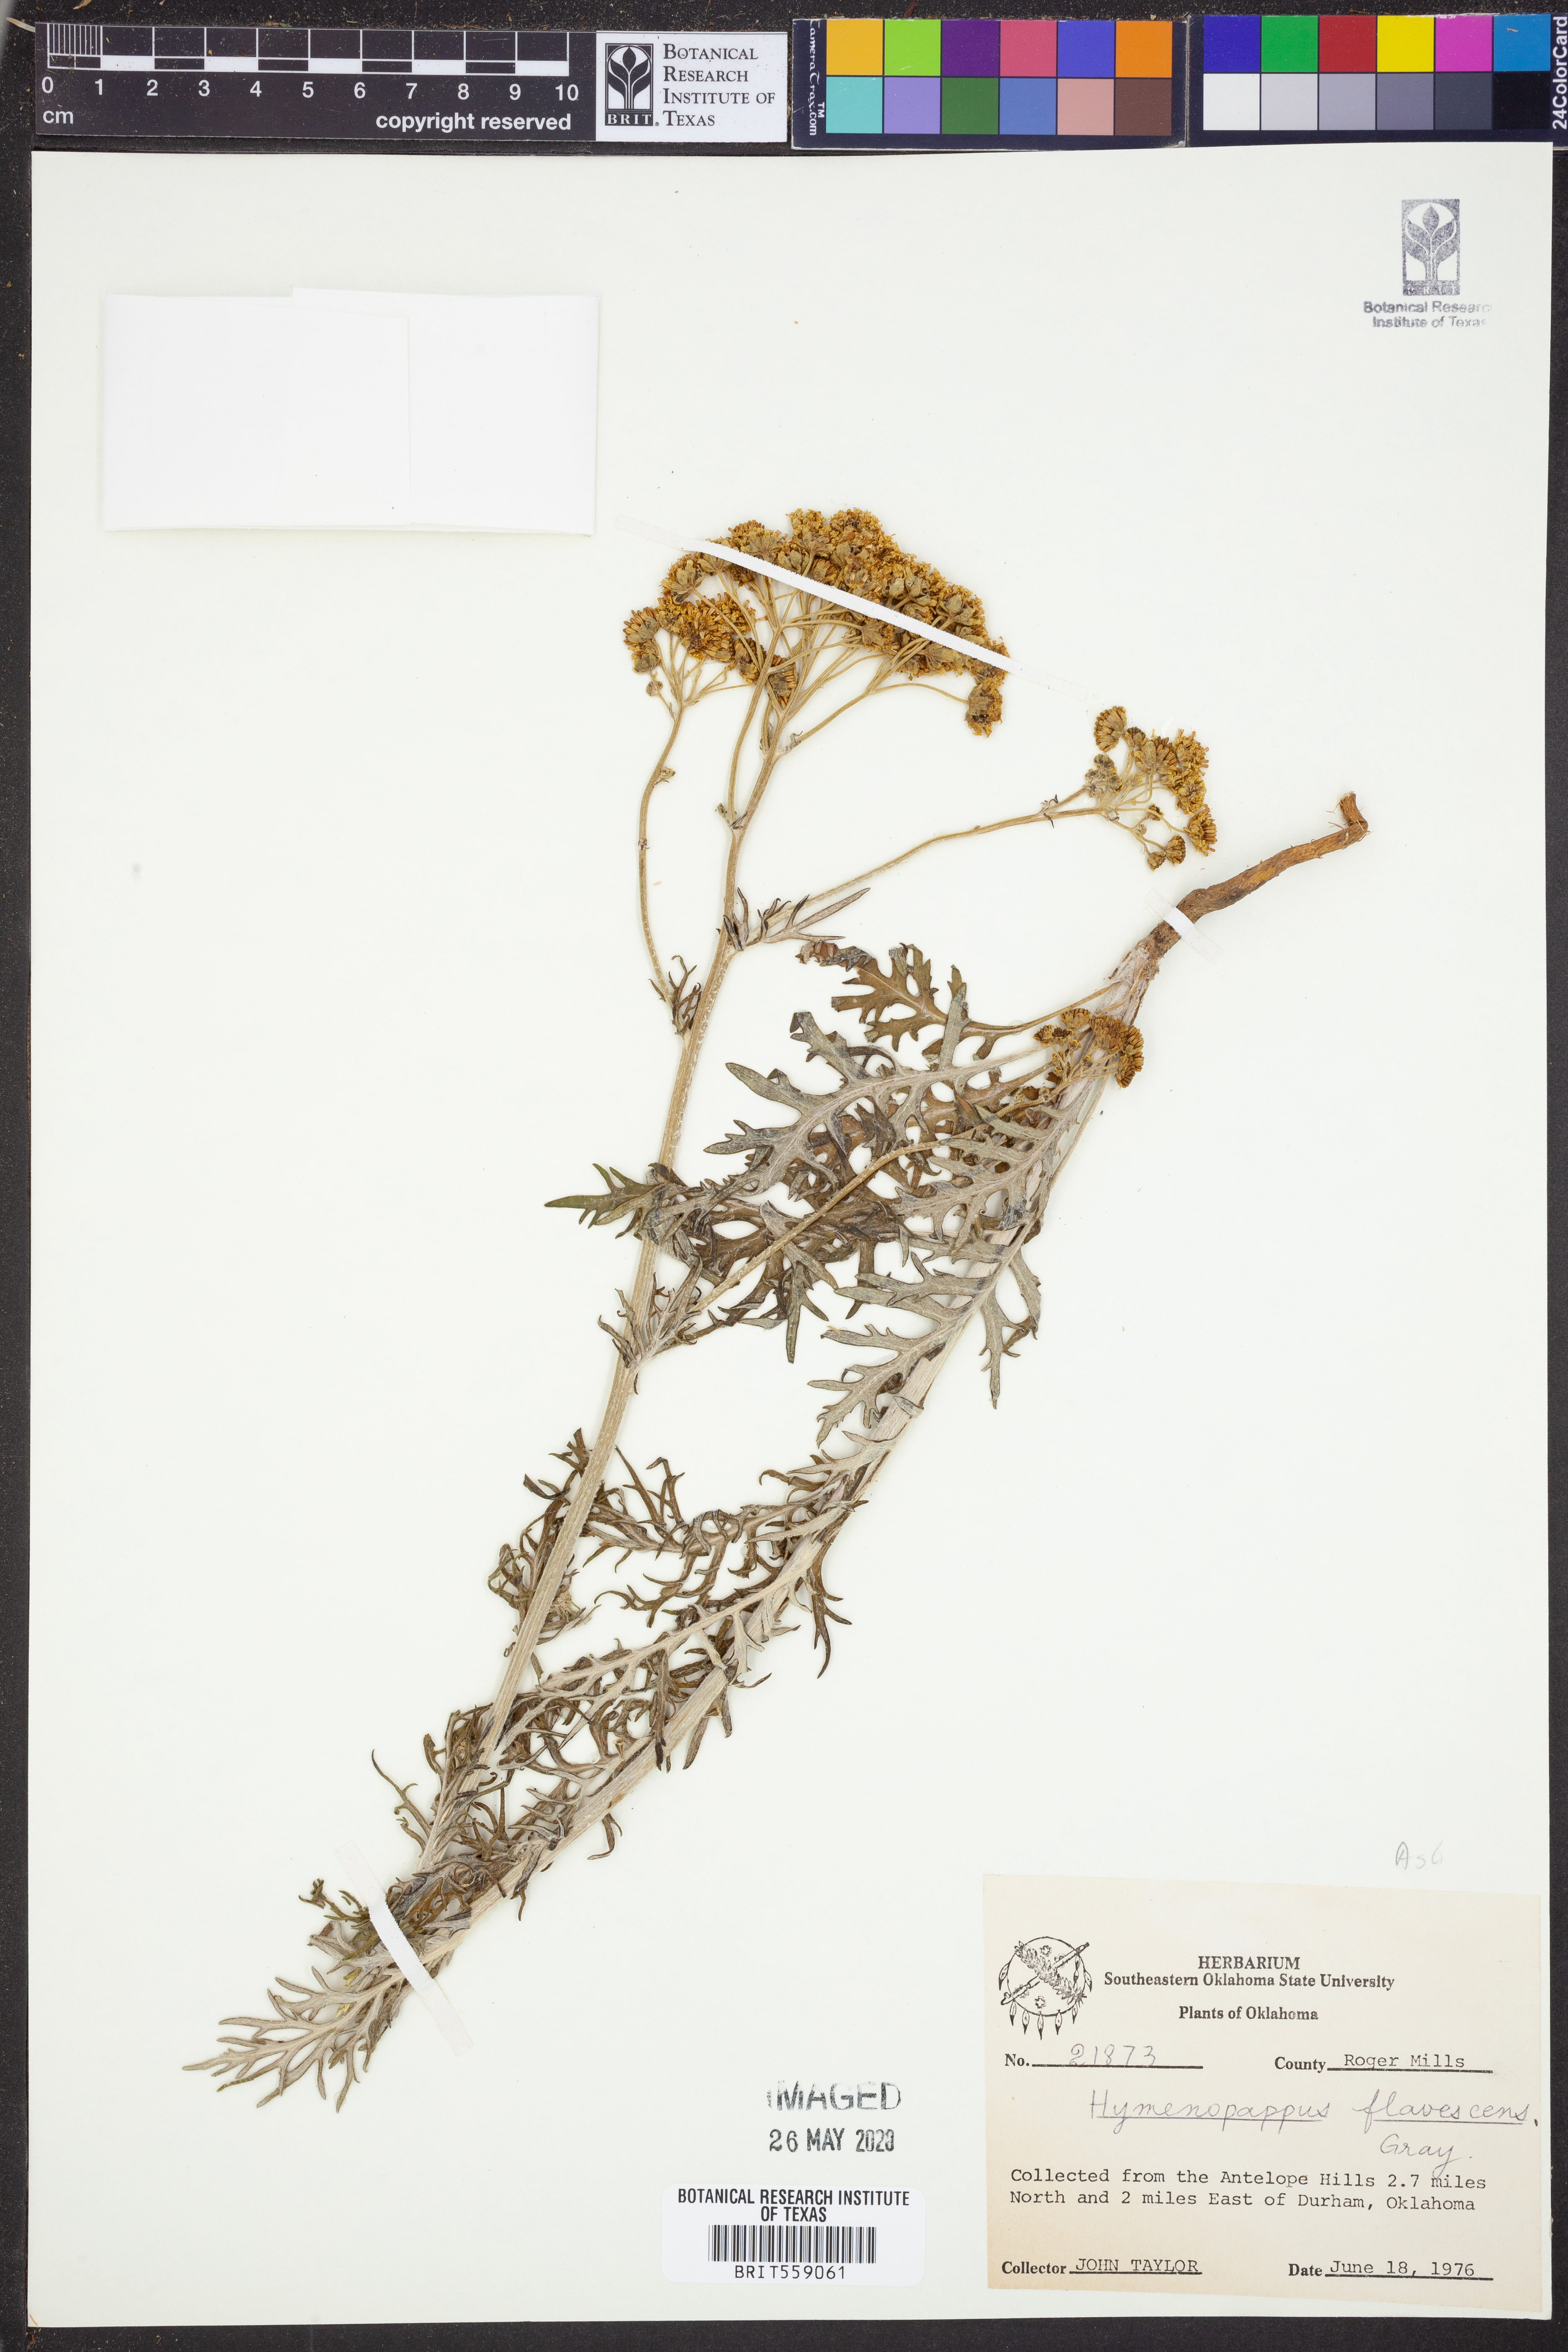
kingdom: Plantae
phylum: Tracheophyta
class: Magnoliopsida
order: Asterales
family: Asteraceae
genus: Hymenopappus
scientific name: Hymenopappus flavescens
